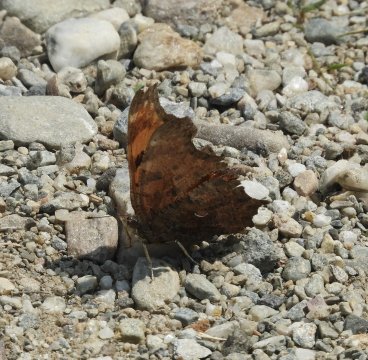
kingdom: Animalia
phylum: Arthropoda
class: Insecta
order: Lepidoptera
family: Nymphalidae
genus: Polygonia
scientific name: Polygonia comma
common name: Eastern Comma
